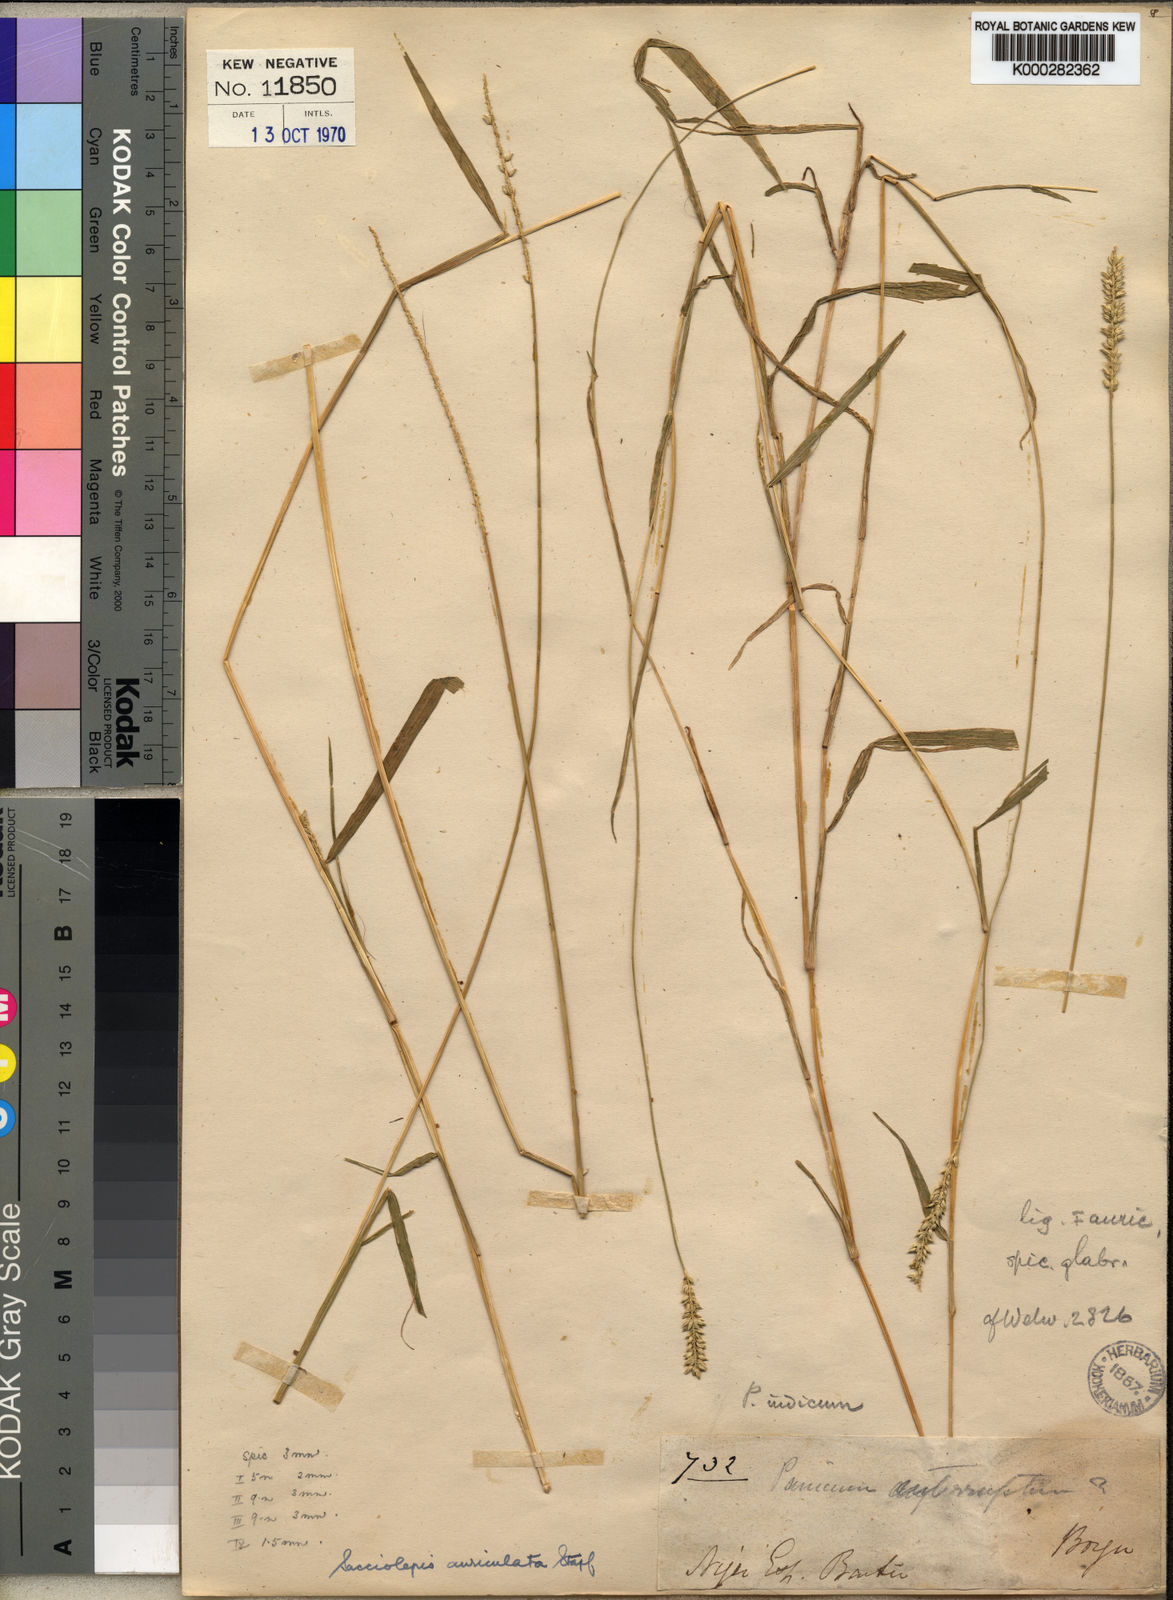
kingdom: Plantae
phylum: Tracheophyta
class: Liliopsida
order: Poales
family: Poaceae
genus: Sacciolepis
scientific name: Sacciolepis indica
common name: Glenwoodgrass
